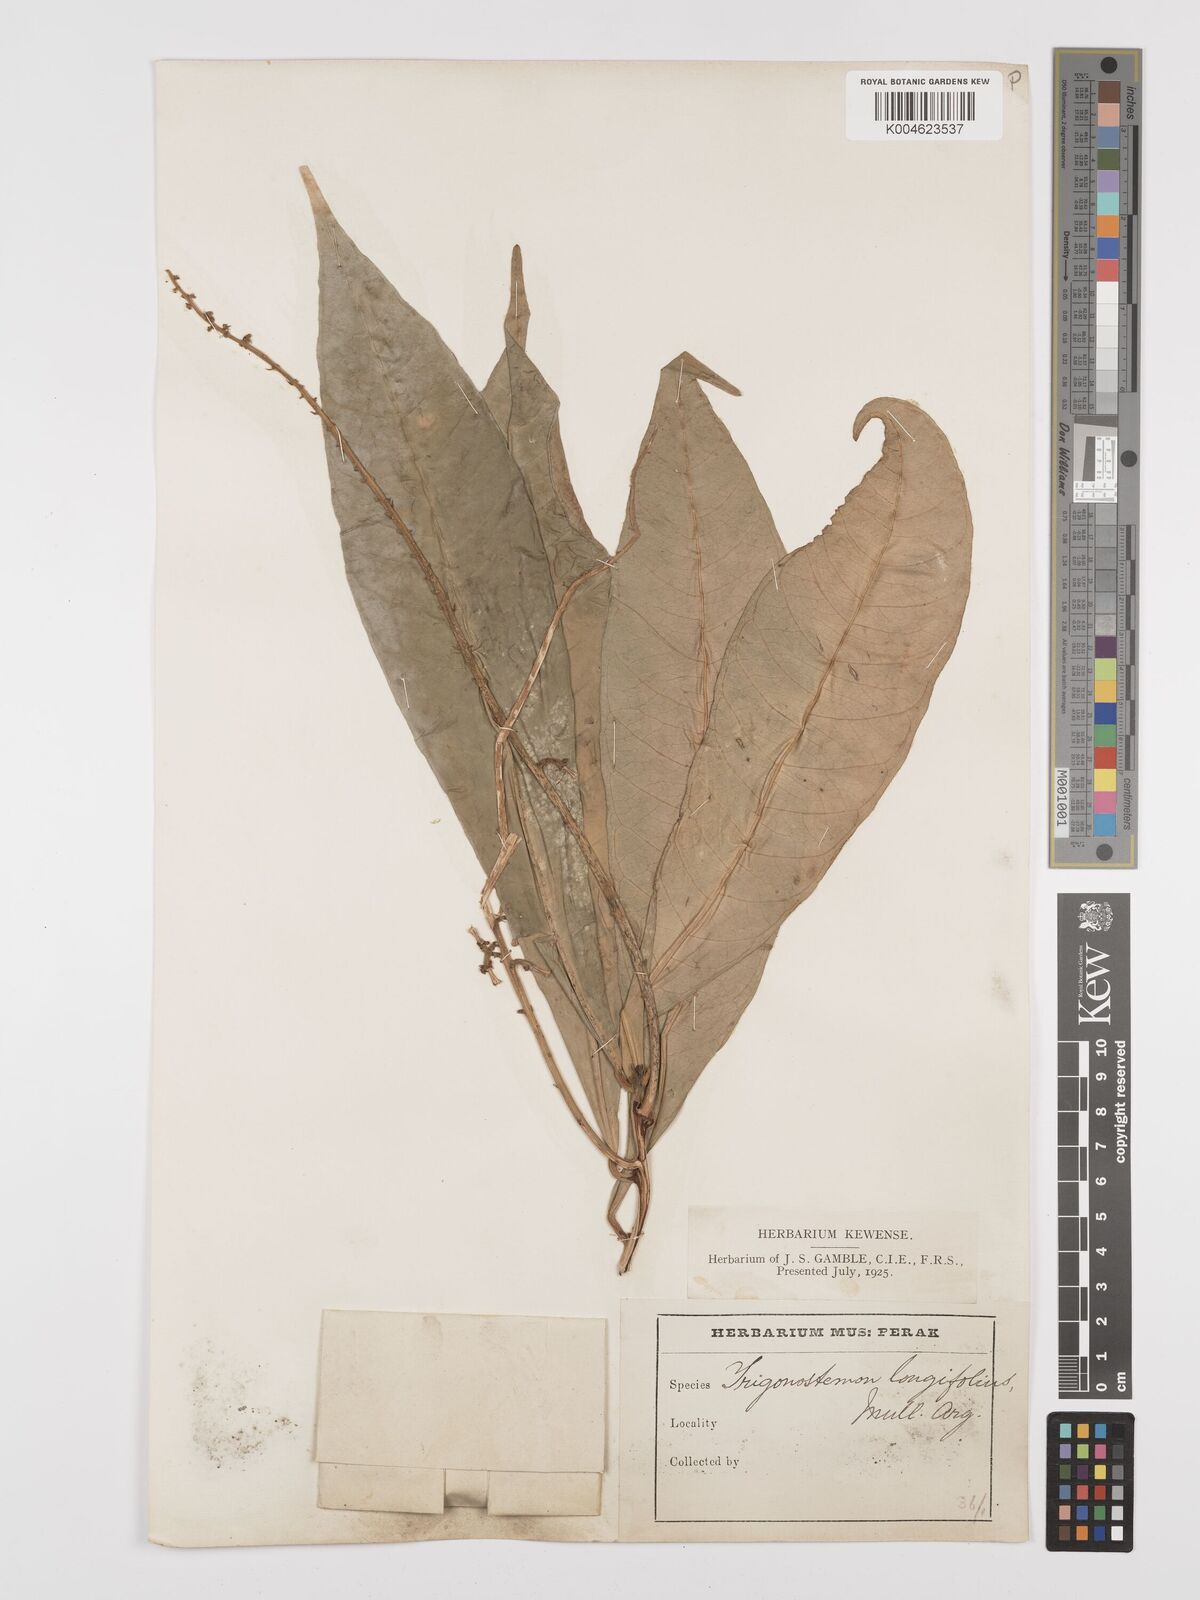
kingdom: Plantae
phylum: Tracheophyta
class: Magnoliopsida
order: Malpighiales
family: Euphorbiaceae
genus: Trigonostemon
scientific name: Trigonostemon longifolius
